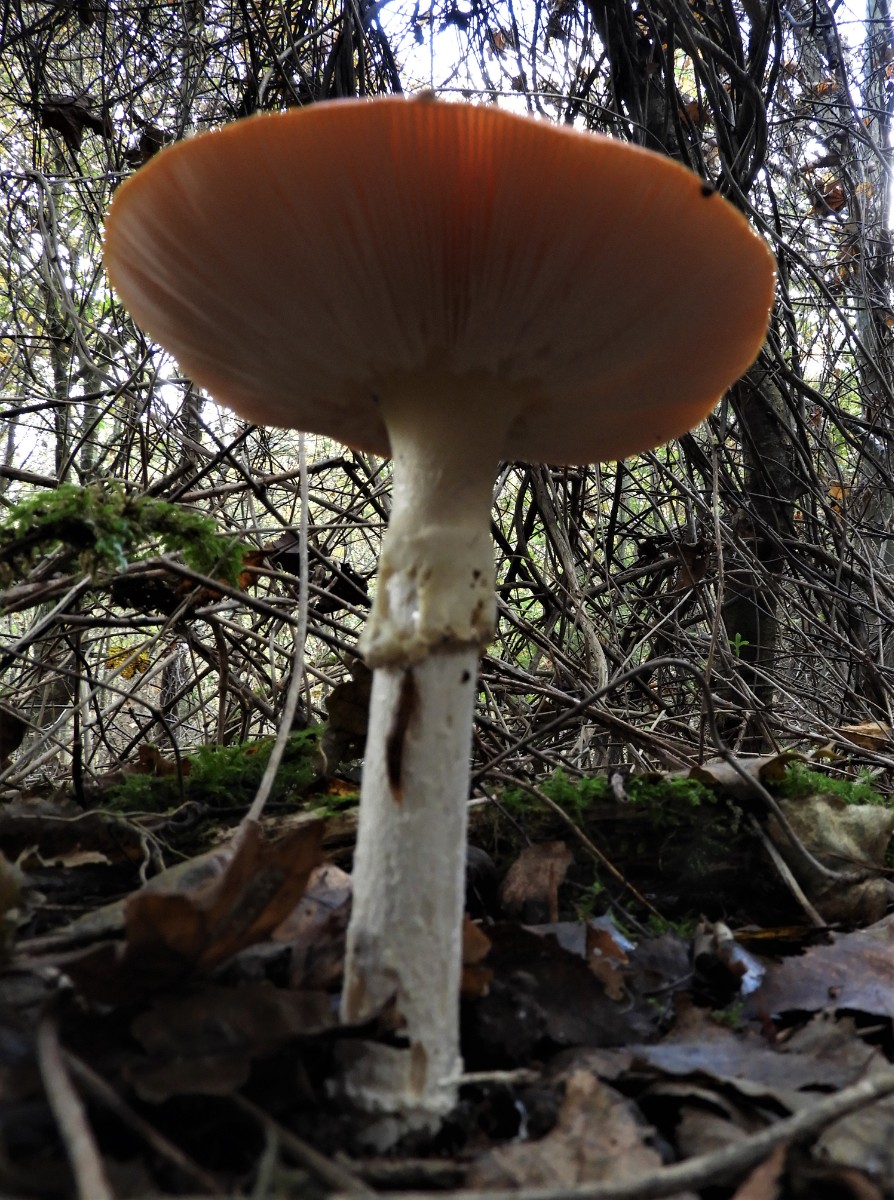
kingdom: Fungi
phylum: Basidiomycota
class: Agaricomycetes
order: Agaricales
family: Amanitaceae
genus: Amanita
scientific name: Amanita muscaria
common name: rød fluesvamp
